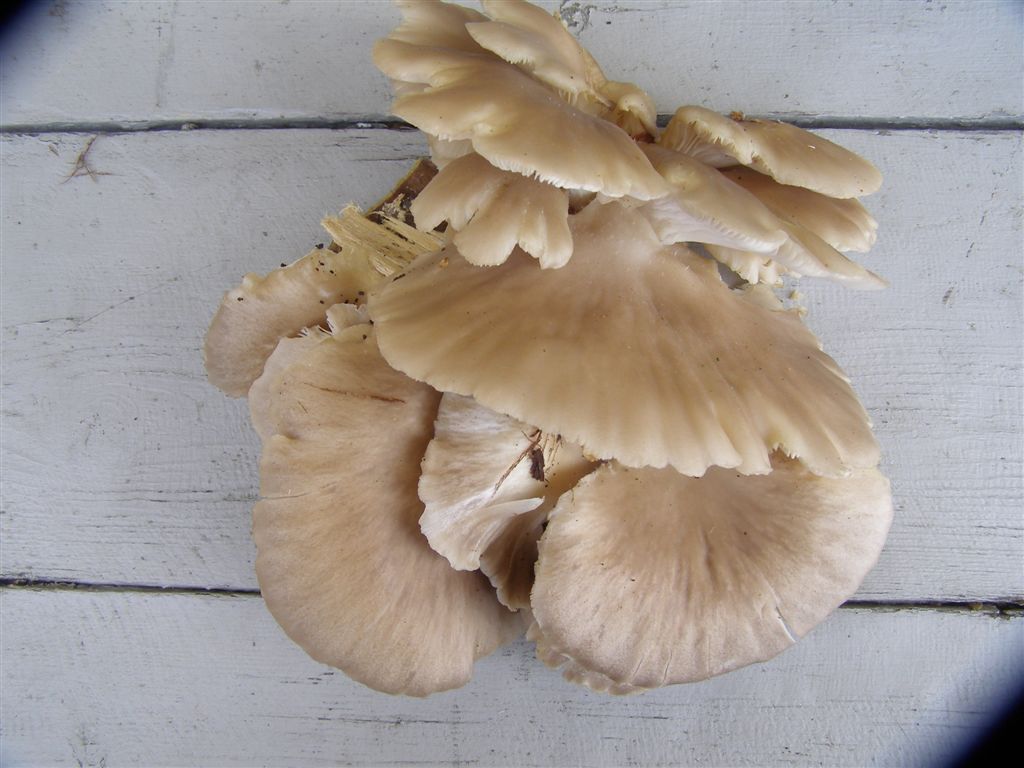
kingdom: Fungi
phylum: Basidiomycota
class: Agaricomycetes
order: Agaricales
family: Pleurotaceae
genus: Pleurotus
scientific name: Pleurotus pulmonarius
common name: sommer-østershat
